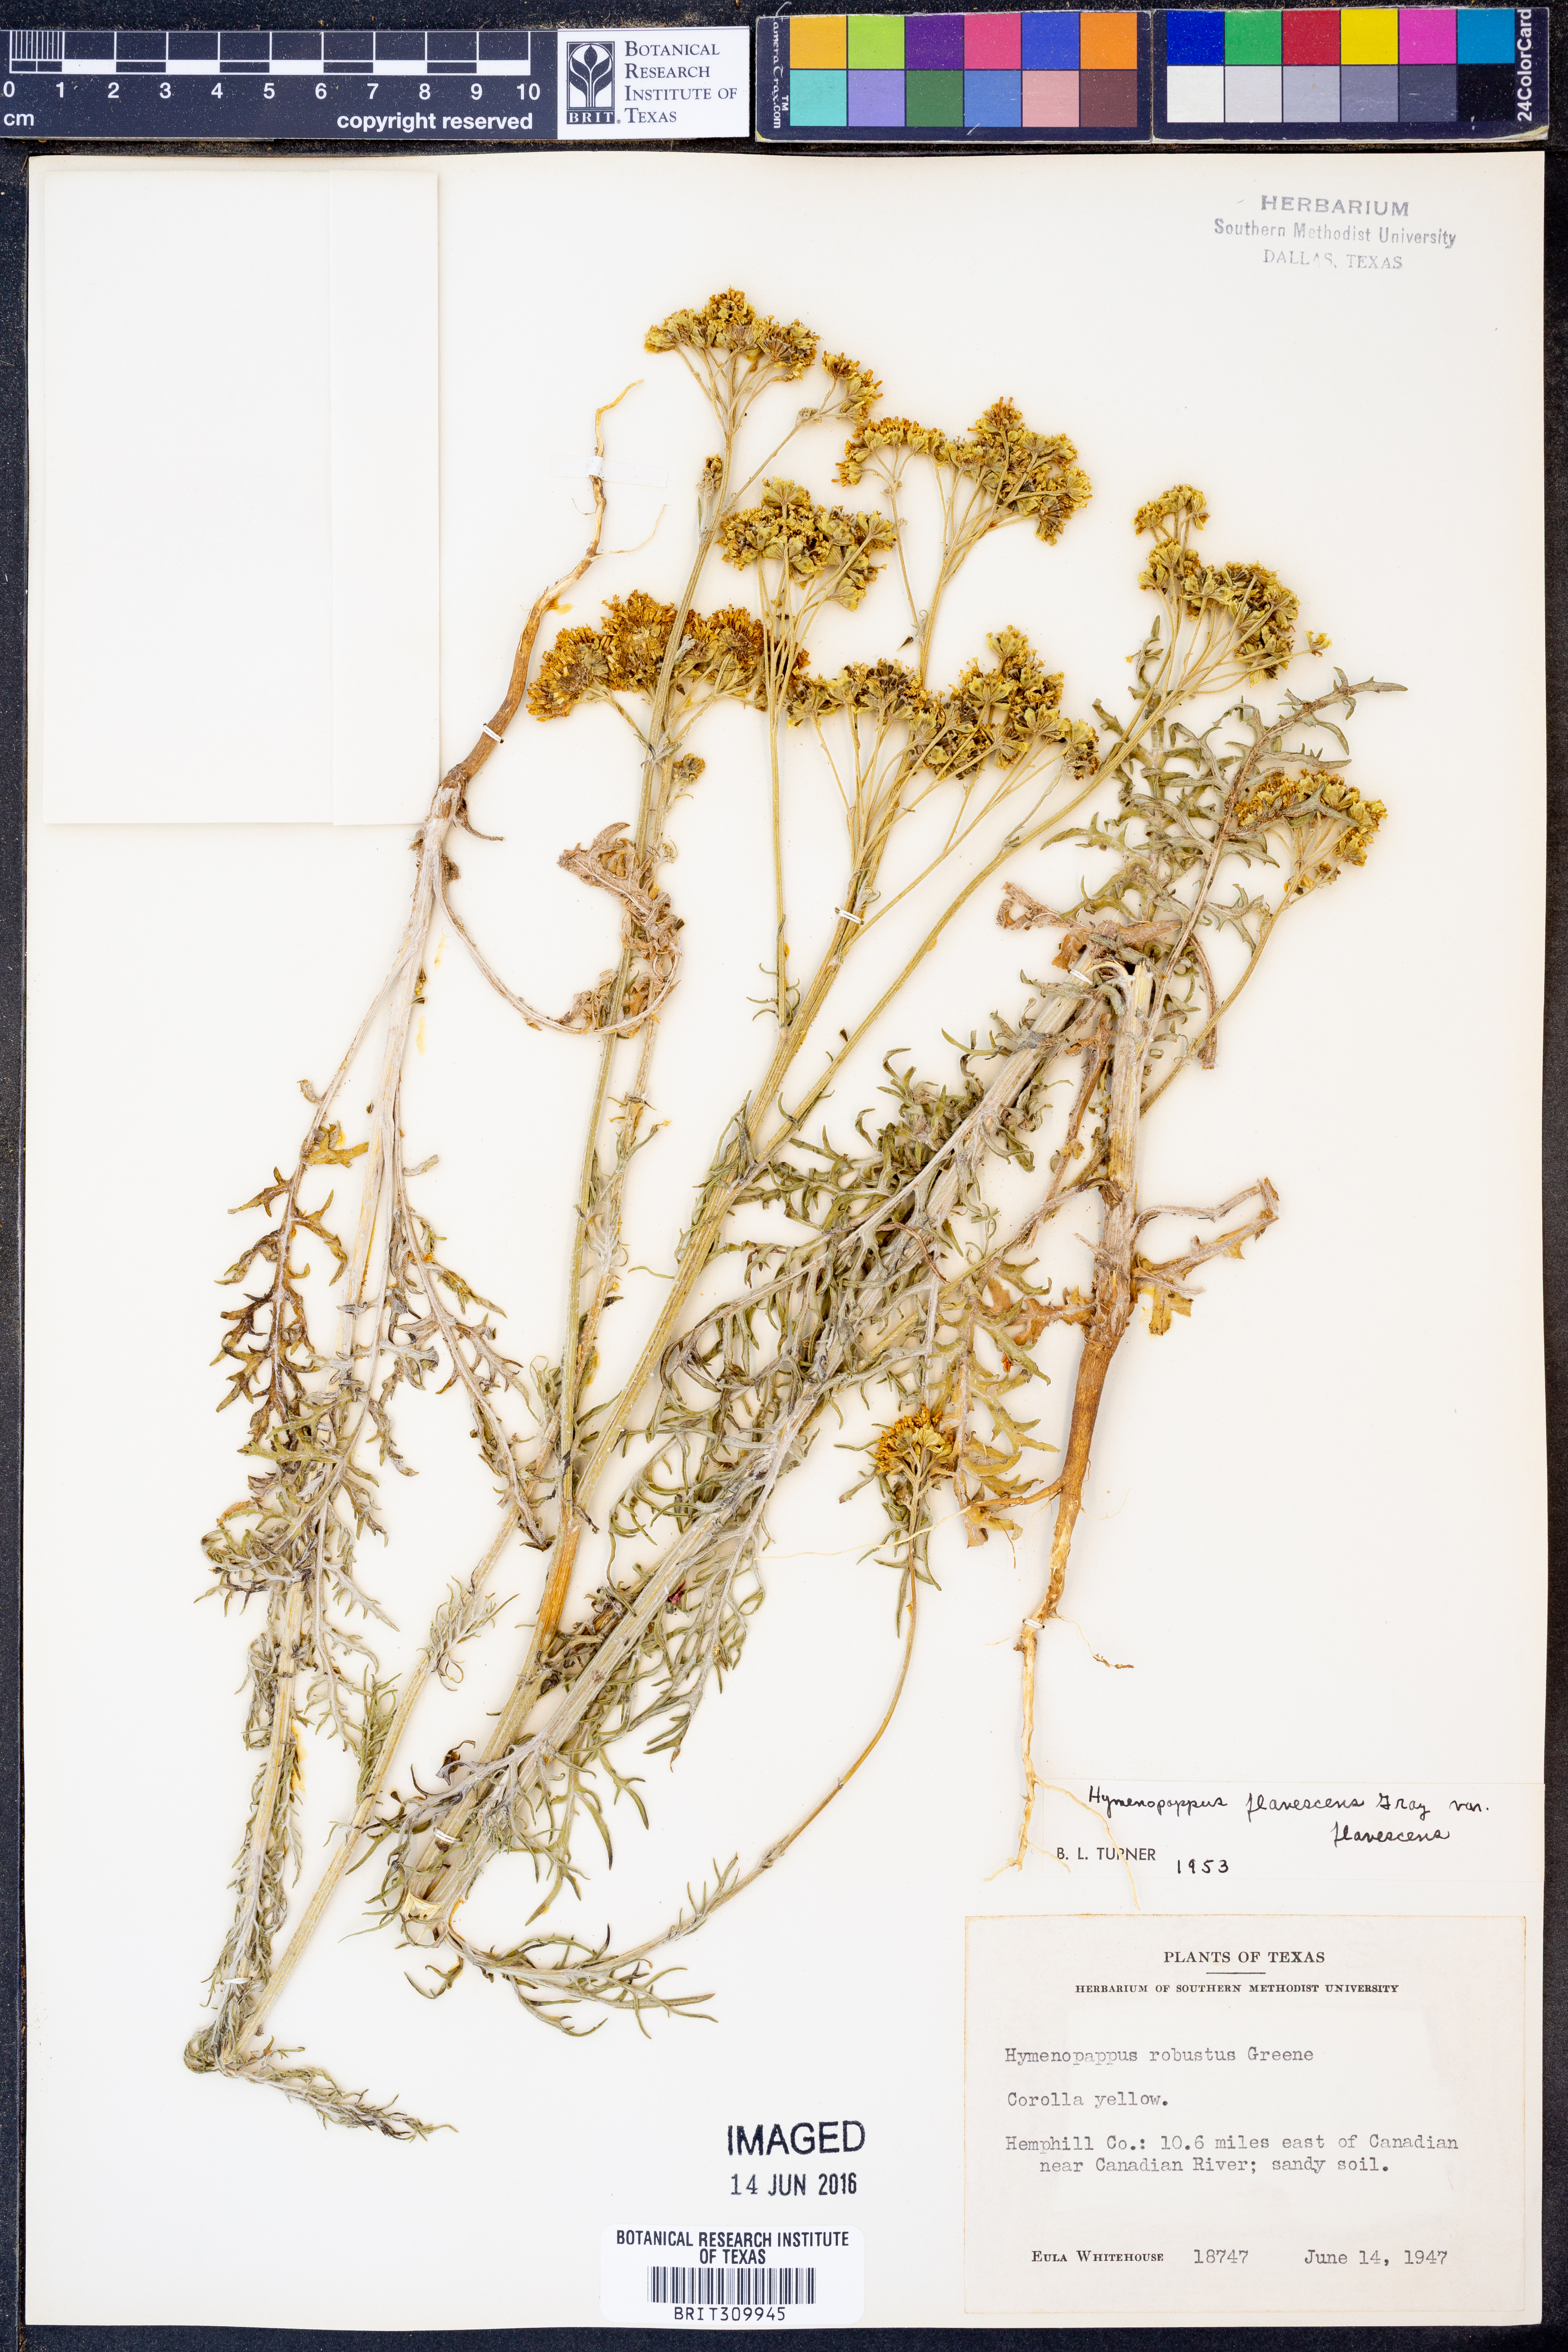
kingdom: Plantae
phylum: Tracheophyta
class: Magnoliopsida
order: Asterales
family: Asteraceae
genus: Hymenopappus
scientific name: Hymenopappus flavescens
